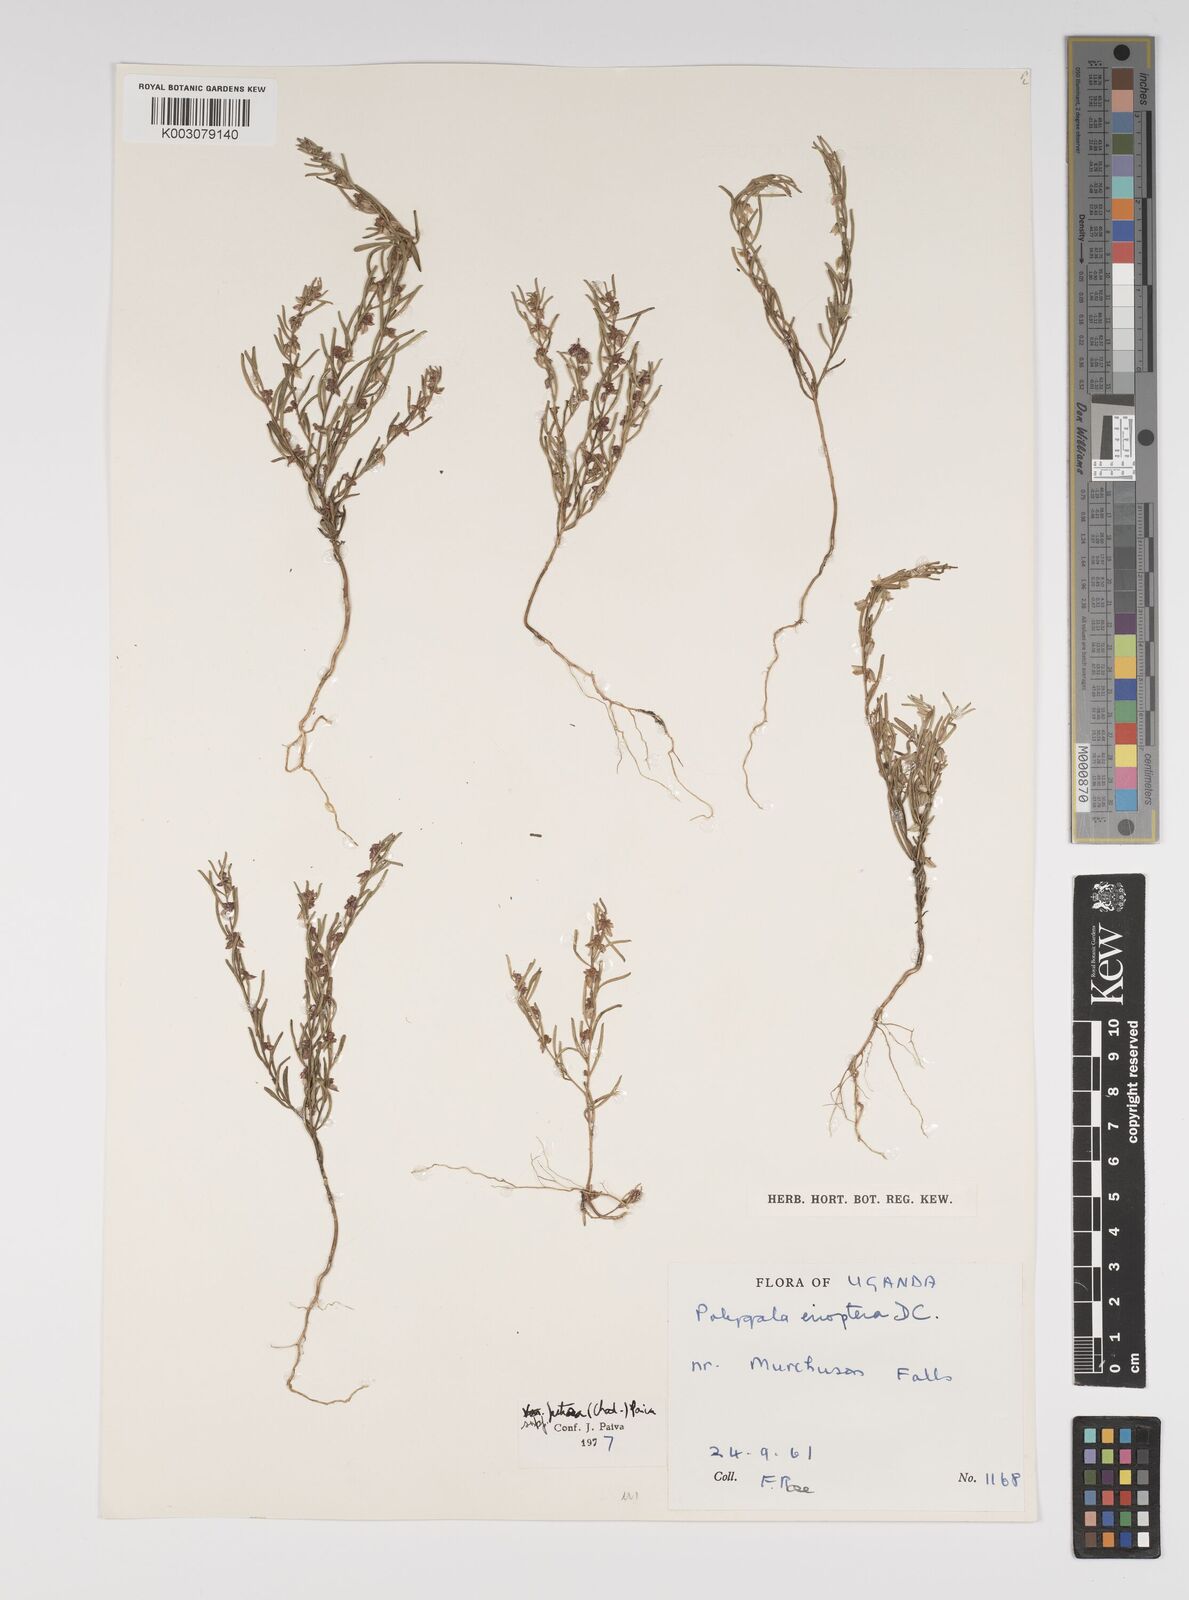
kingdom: Plantae
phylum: Tracheophyta
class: Magnoliopsida
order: Fabales
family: Polygalaceae
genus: Polygala
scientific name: Polygala erioptera
